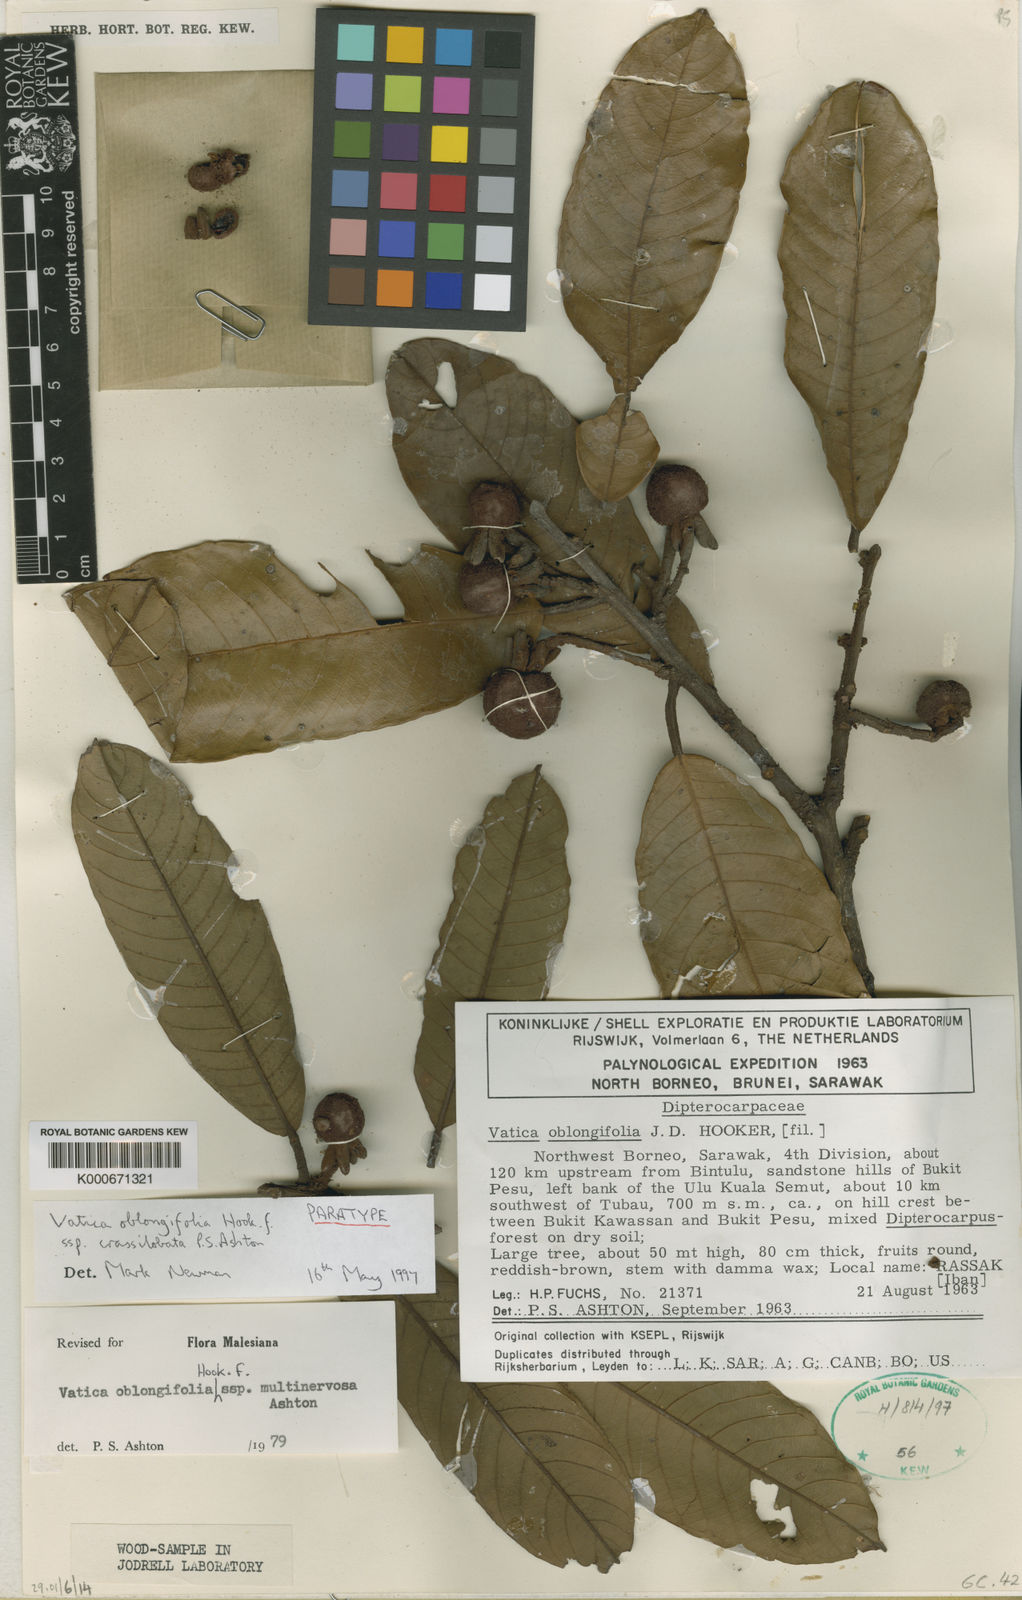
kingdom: Plantae
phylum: Tracheophyta
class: Magnoliopsida
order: Malvales
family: Dipterocarpaceae
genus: Vatica
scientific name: Vatica oblongifolia
